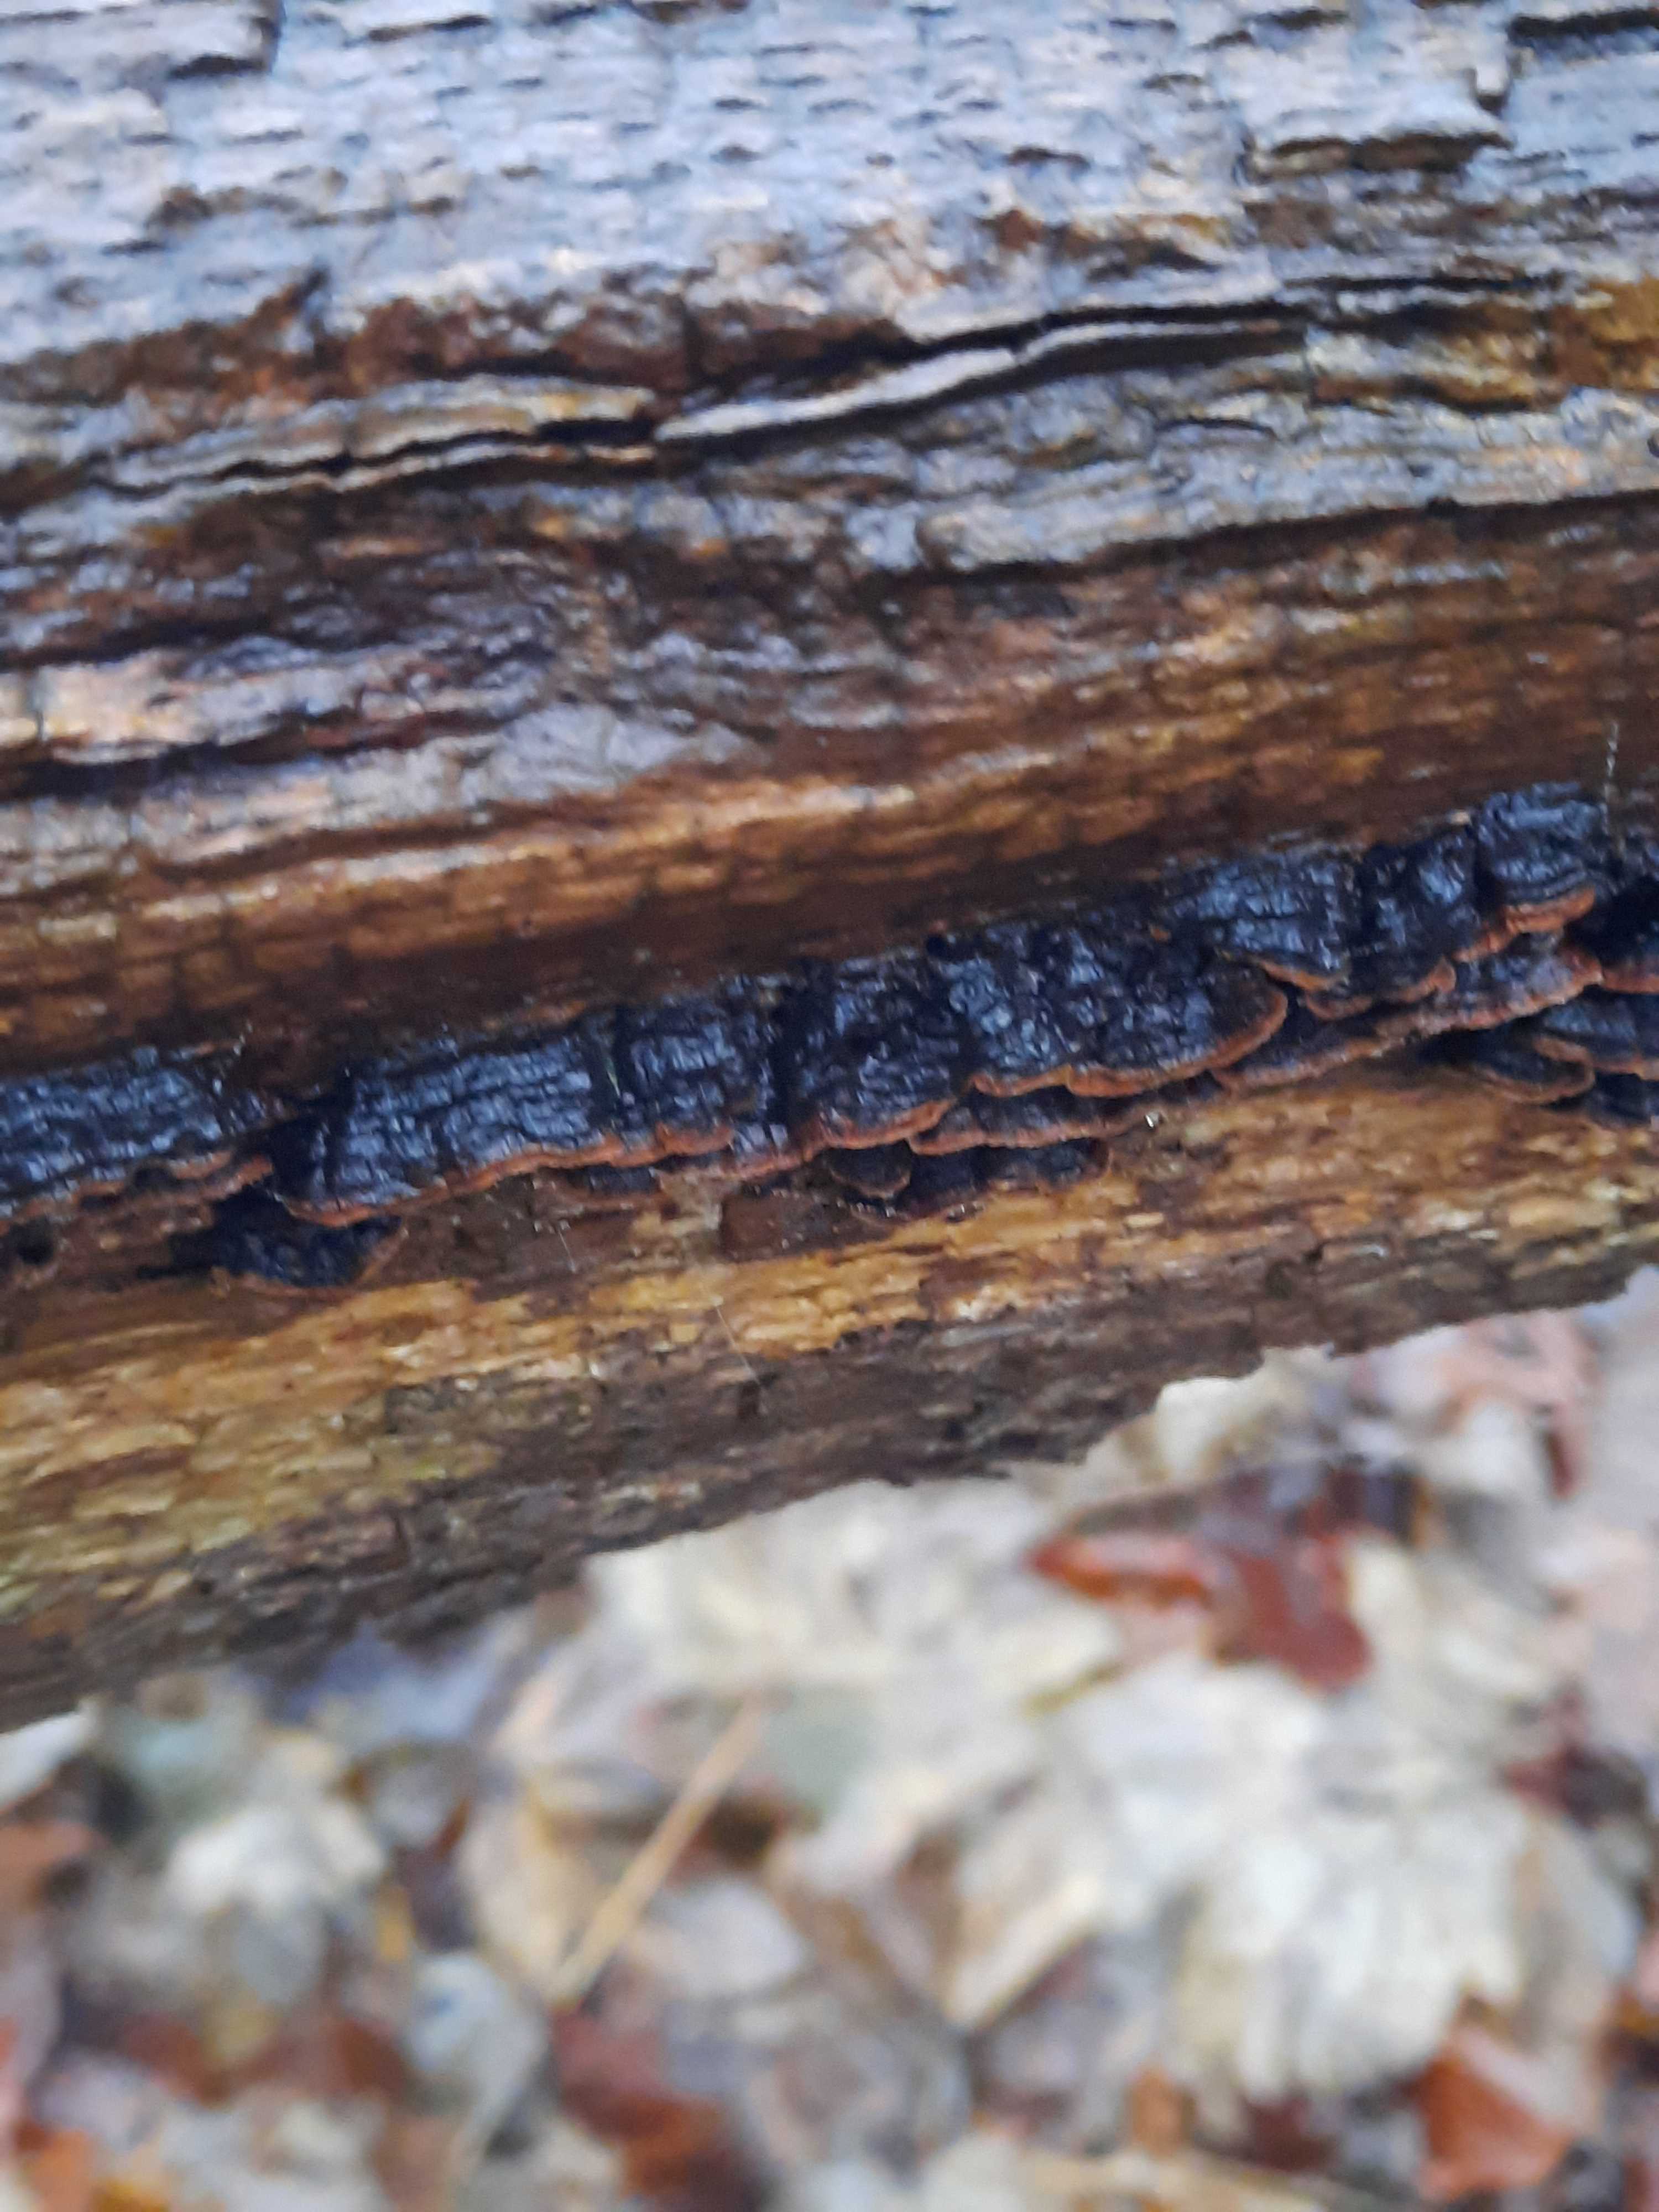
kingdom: Fungi
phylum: Basidiomycota
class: Agaricomycetes
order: Hymenochaetales
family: Hymenochaetaceae
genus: Hymenochaete
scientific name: Hymenochaete rubiginosa
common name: stiv ruslædersvamp
